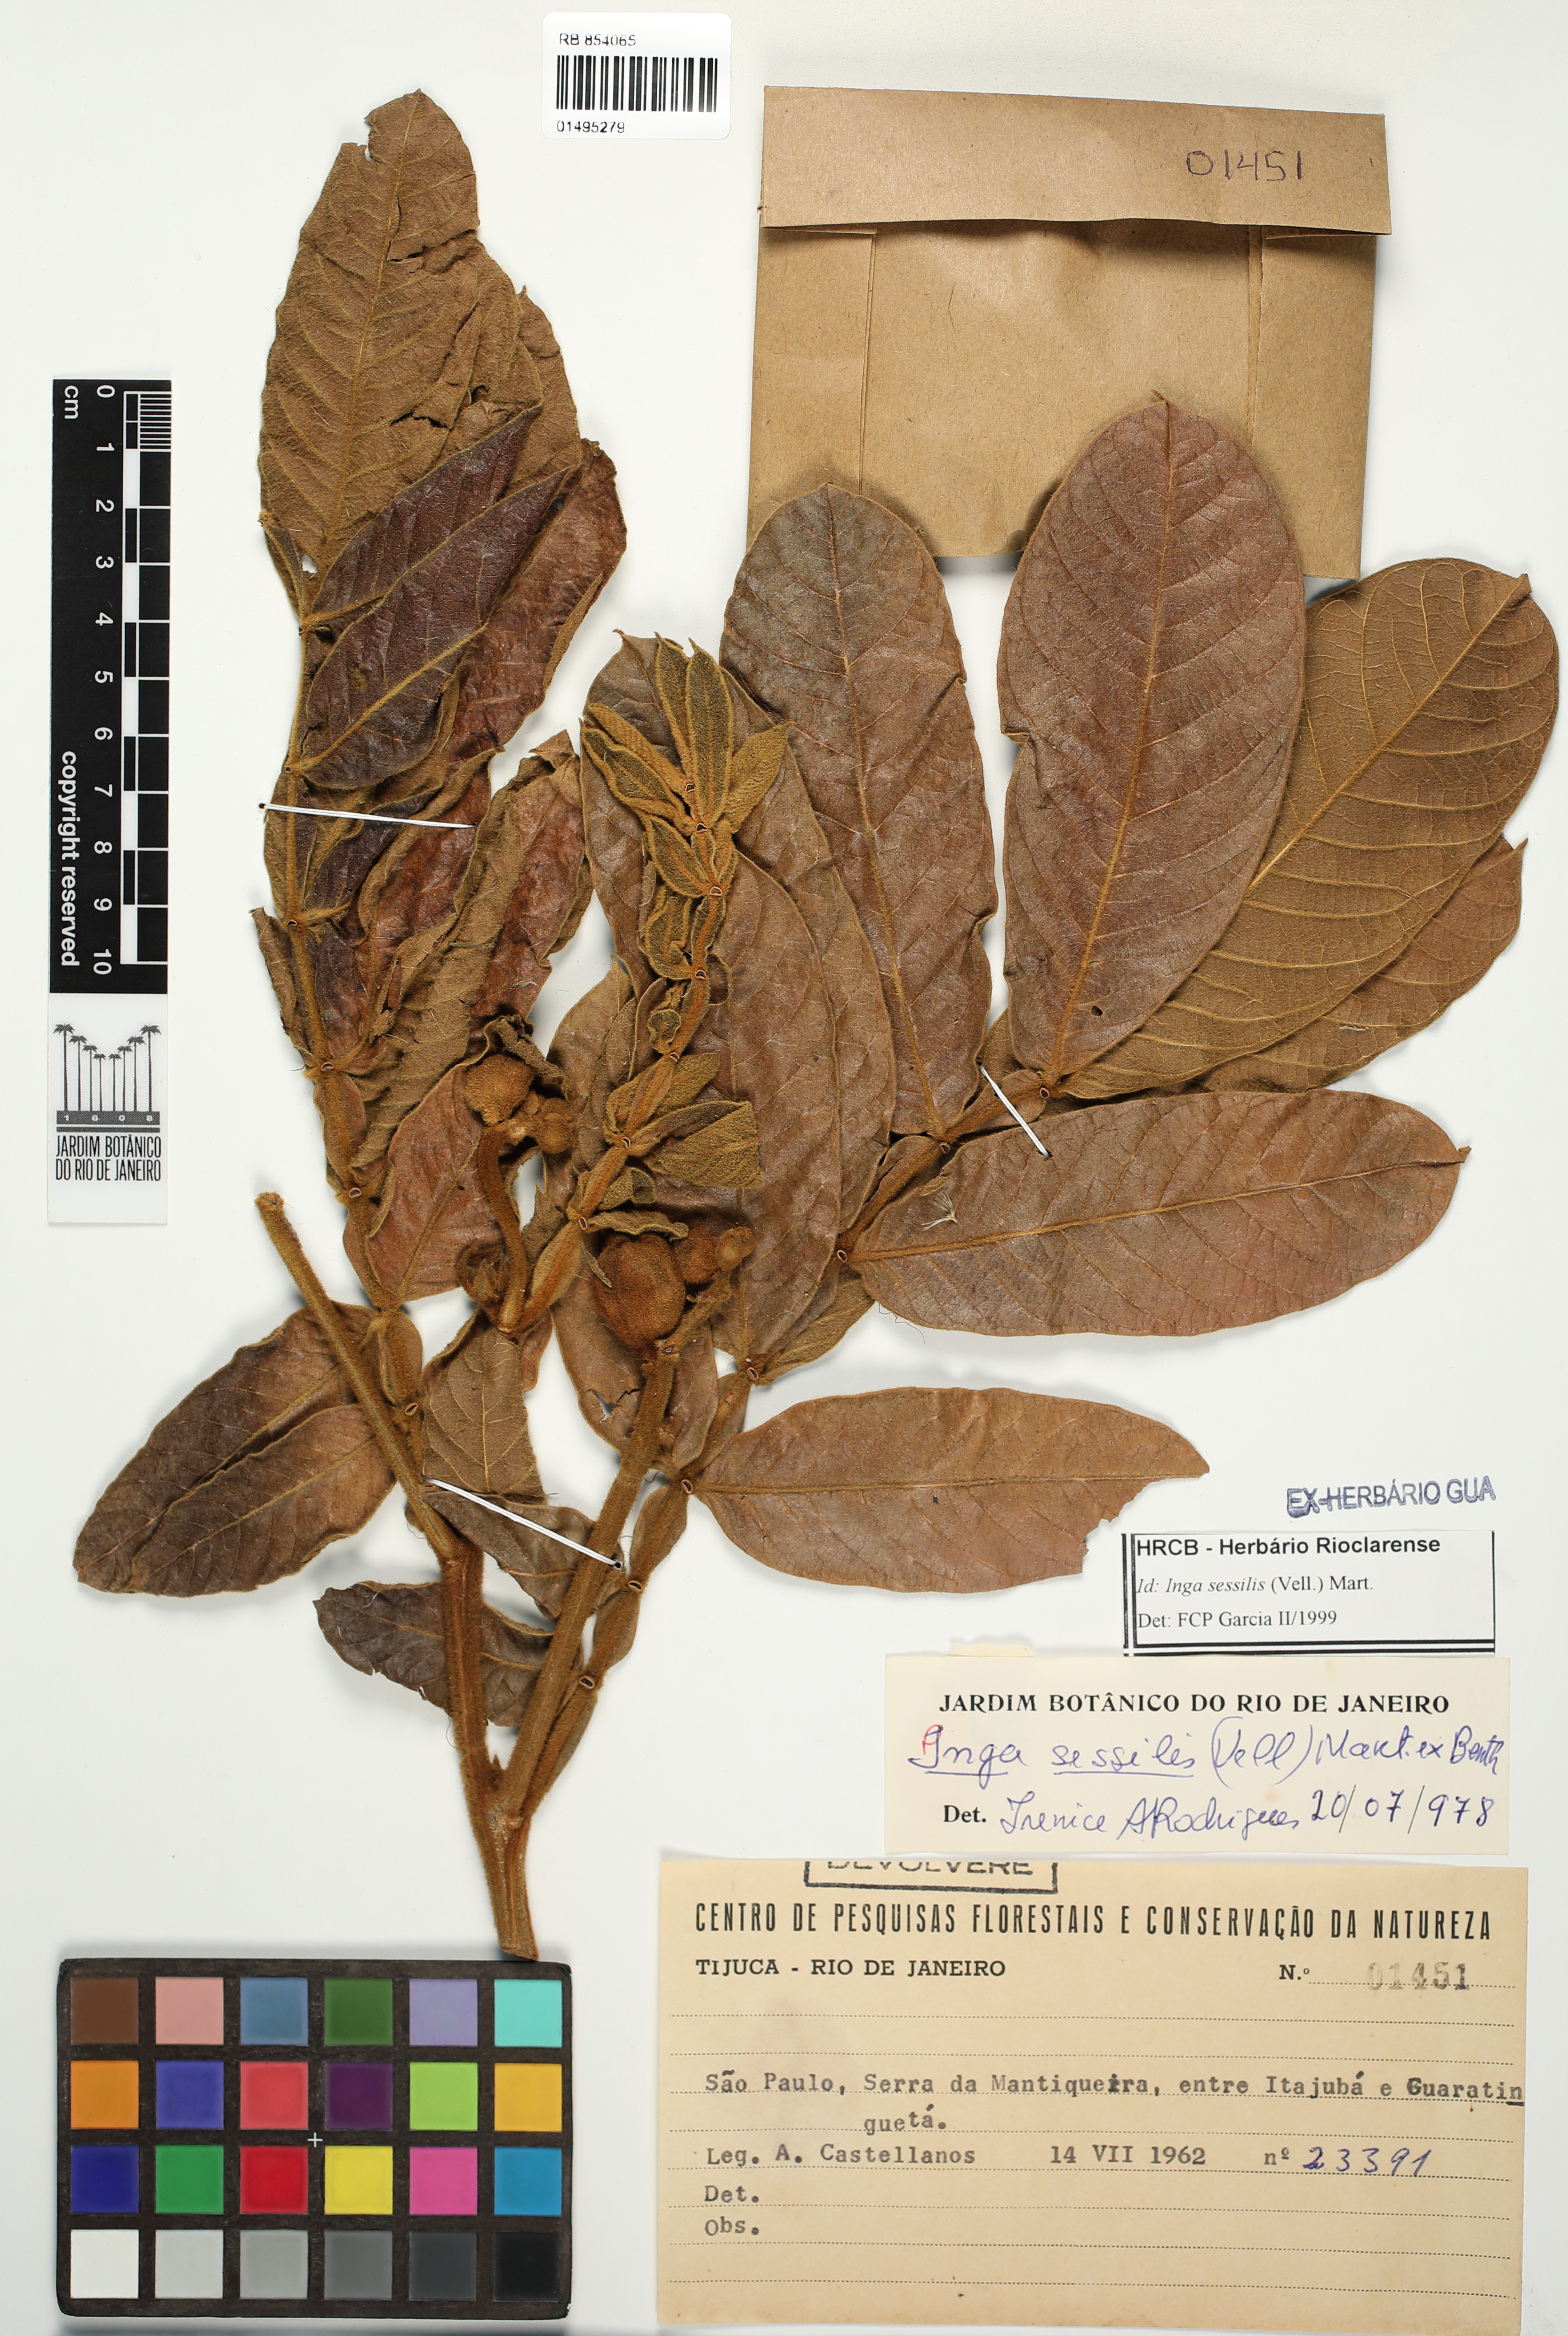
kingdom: Plantae
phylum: Tracheophyta
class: Magnoliopsida
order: Fabales
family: Fabaceae
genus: Inga
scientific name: Inga sessilis
